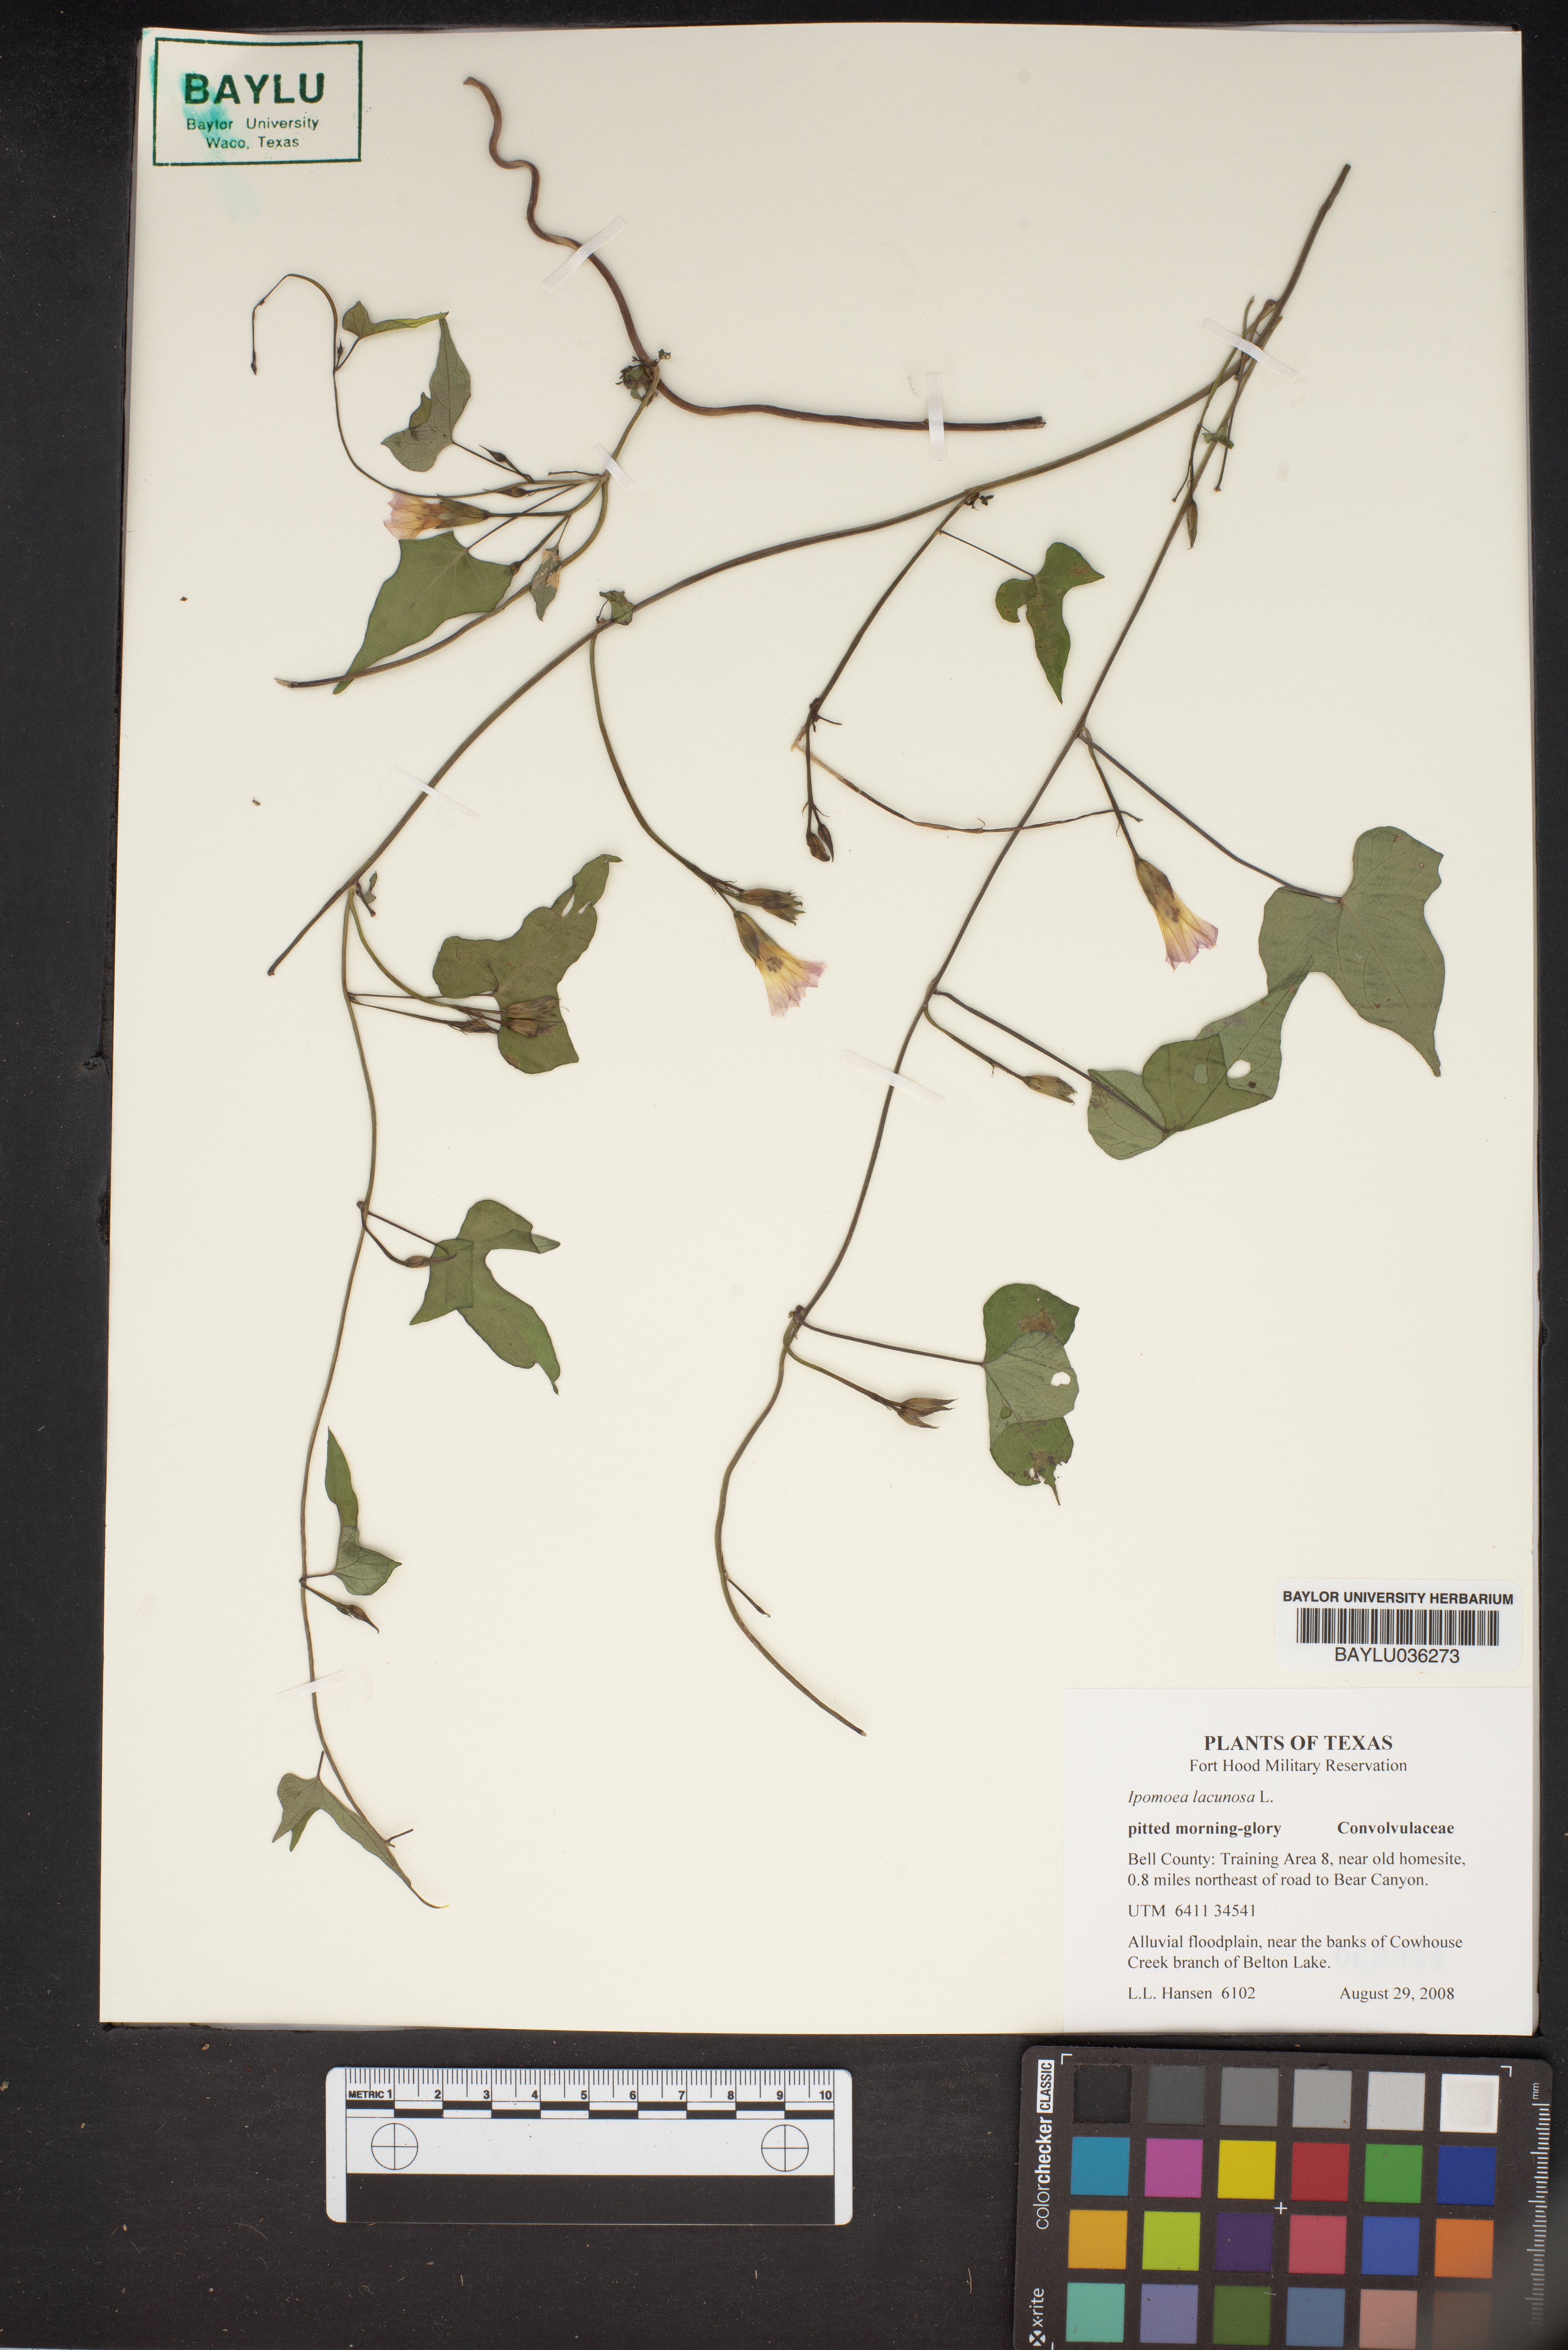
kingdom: Plantae
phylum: Tracheophyta
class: Magnoliopsida
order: Solanales
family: Convolvulaceae
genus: Ipomoea
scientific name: Ipomoea lacunosa
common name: White morning-glory
